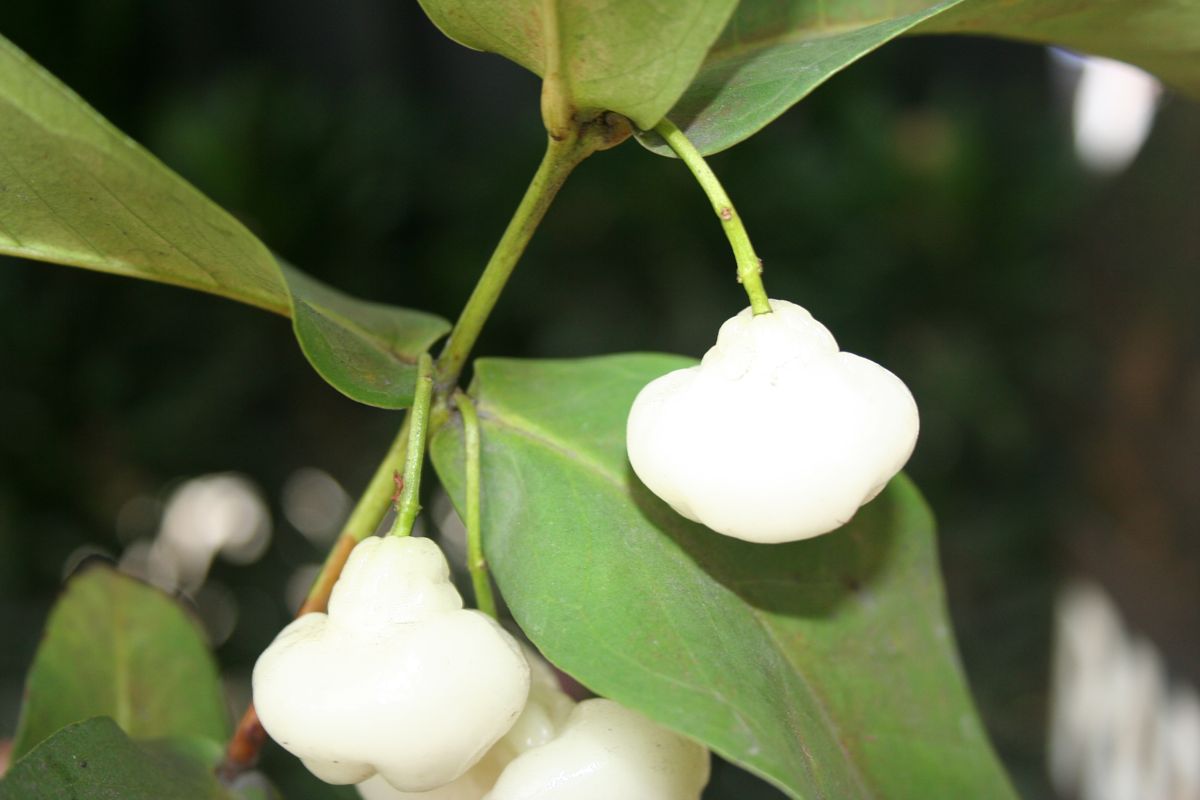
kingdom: Plantae
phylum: Tracheophyta
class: Magnoliopsida
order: Myrtales
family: Myrtaceae
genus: Syzygium
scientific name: Syzygium
